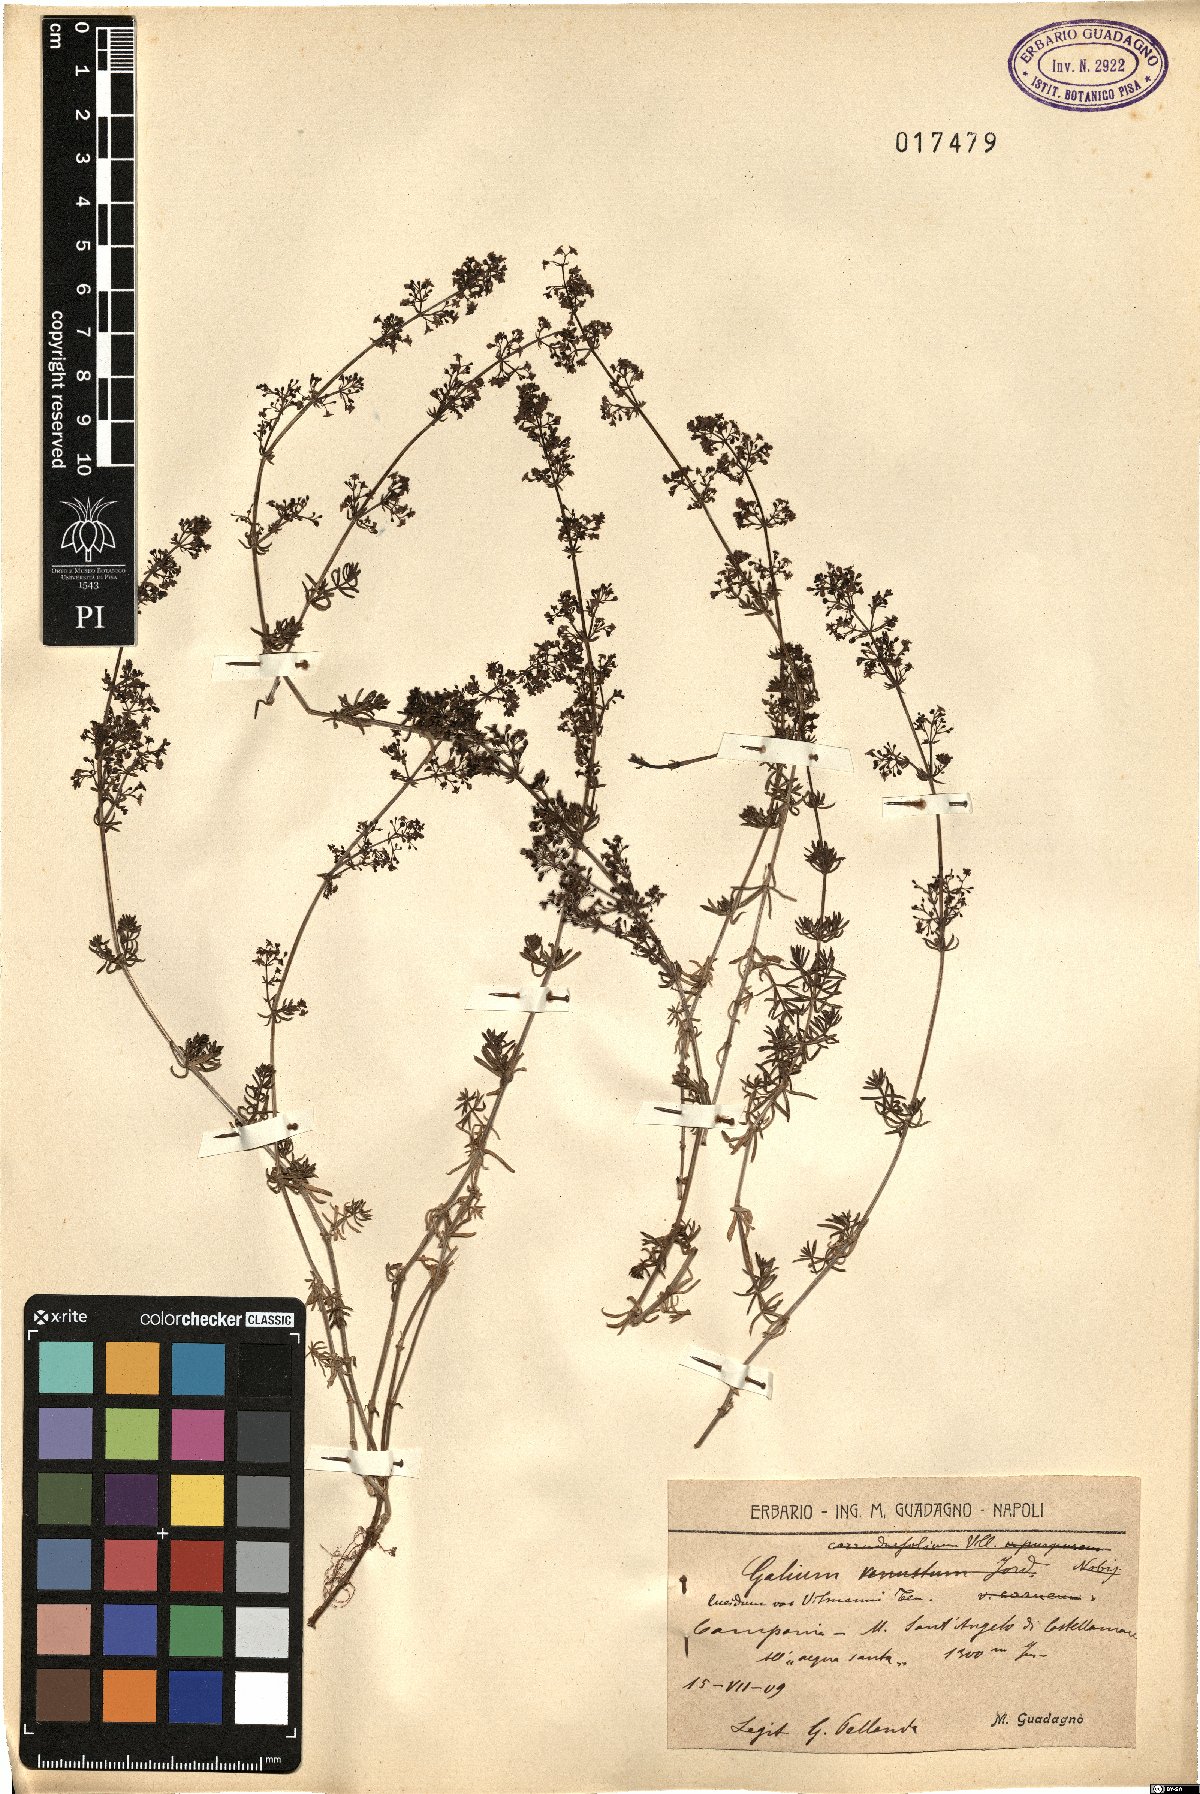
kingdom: Plantae
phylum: Tracheophyta
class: Magnoliopsida
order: Gentianales
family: Rubiaceae
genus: Galium
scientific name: Galium lucidum
